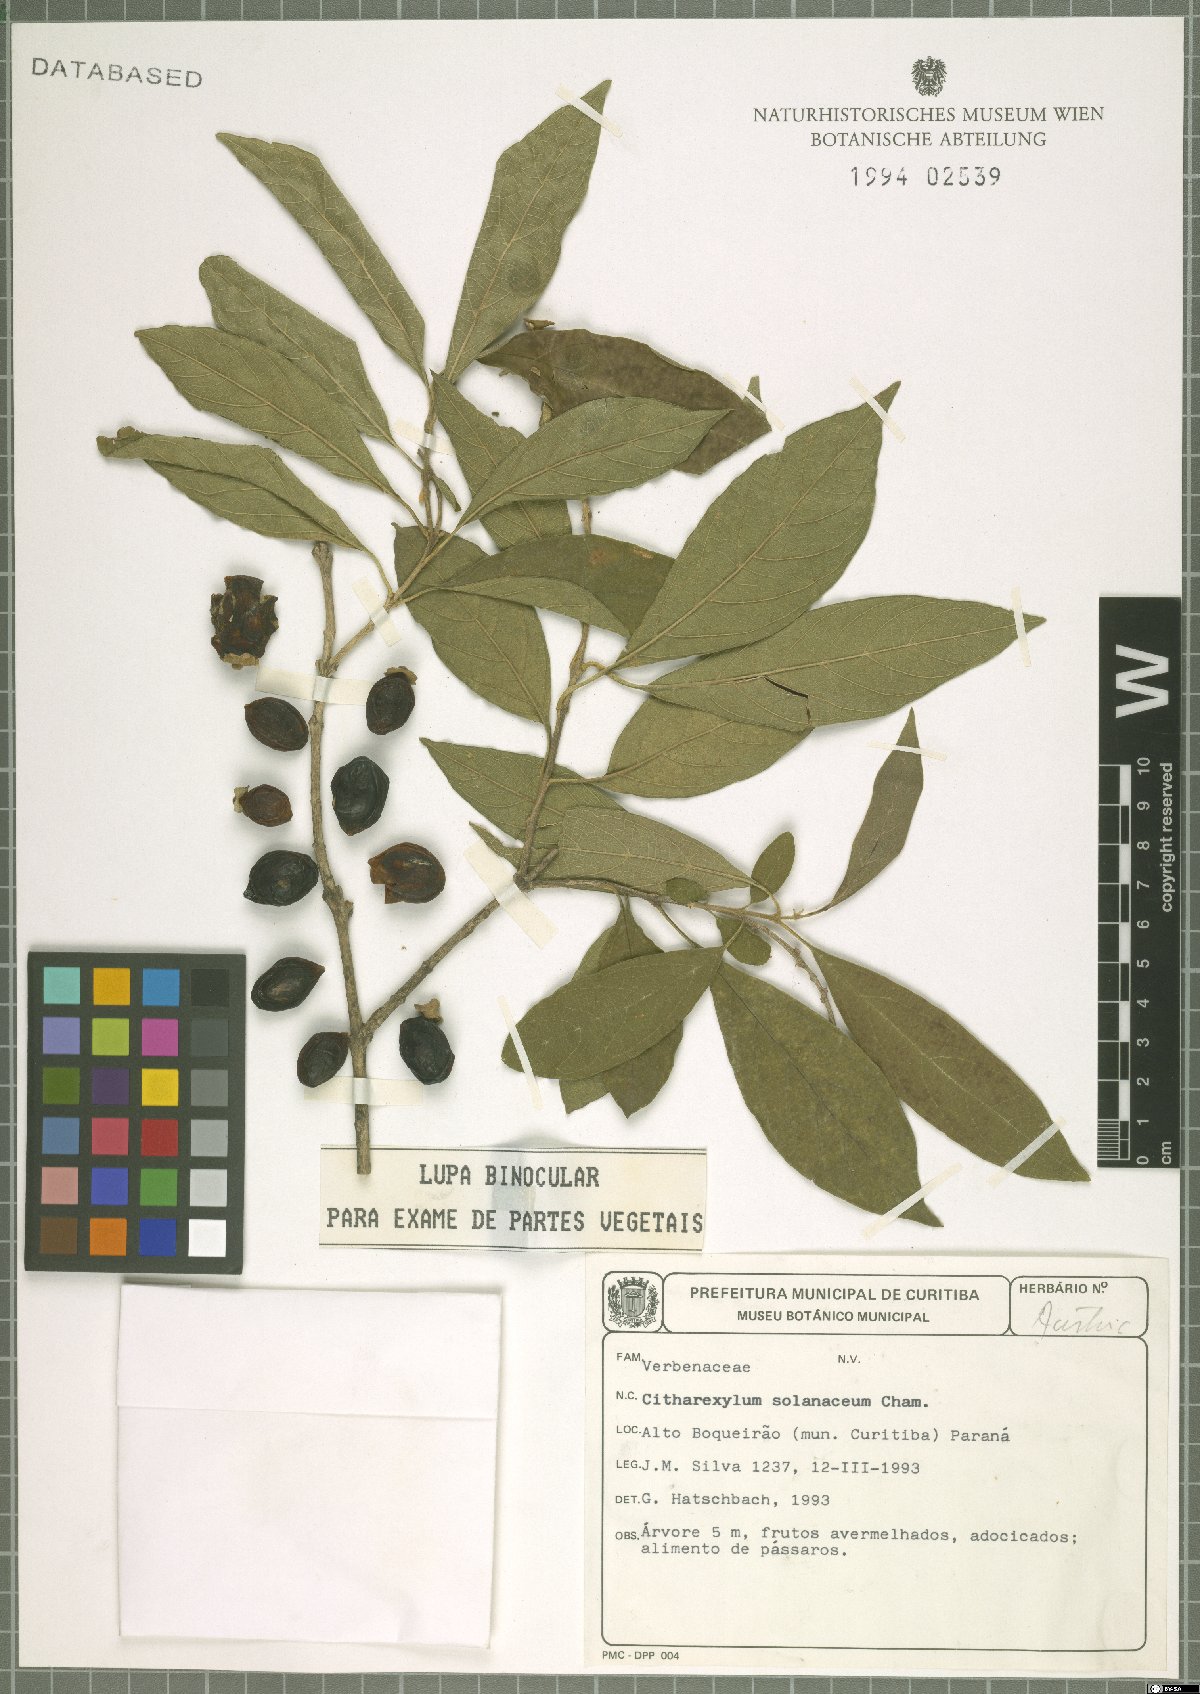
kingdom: Plantae
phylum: Tracheophyta
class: Magnoliopsida
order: Lamiales
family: Verbenaceae
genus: Citharexylum
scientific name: Citharexylum solanaceum
